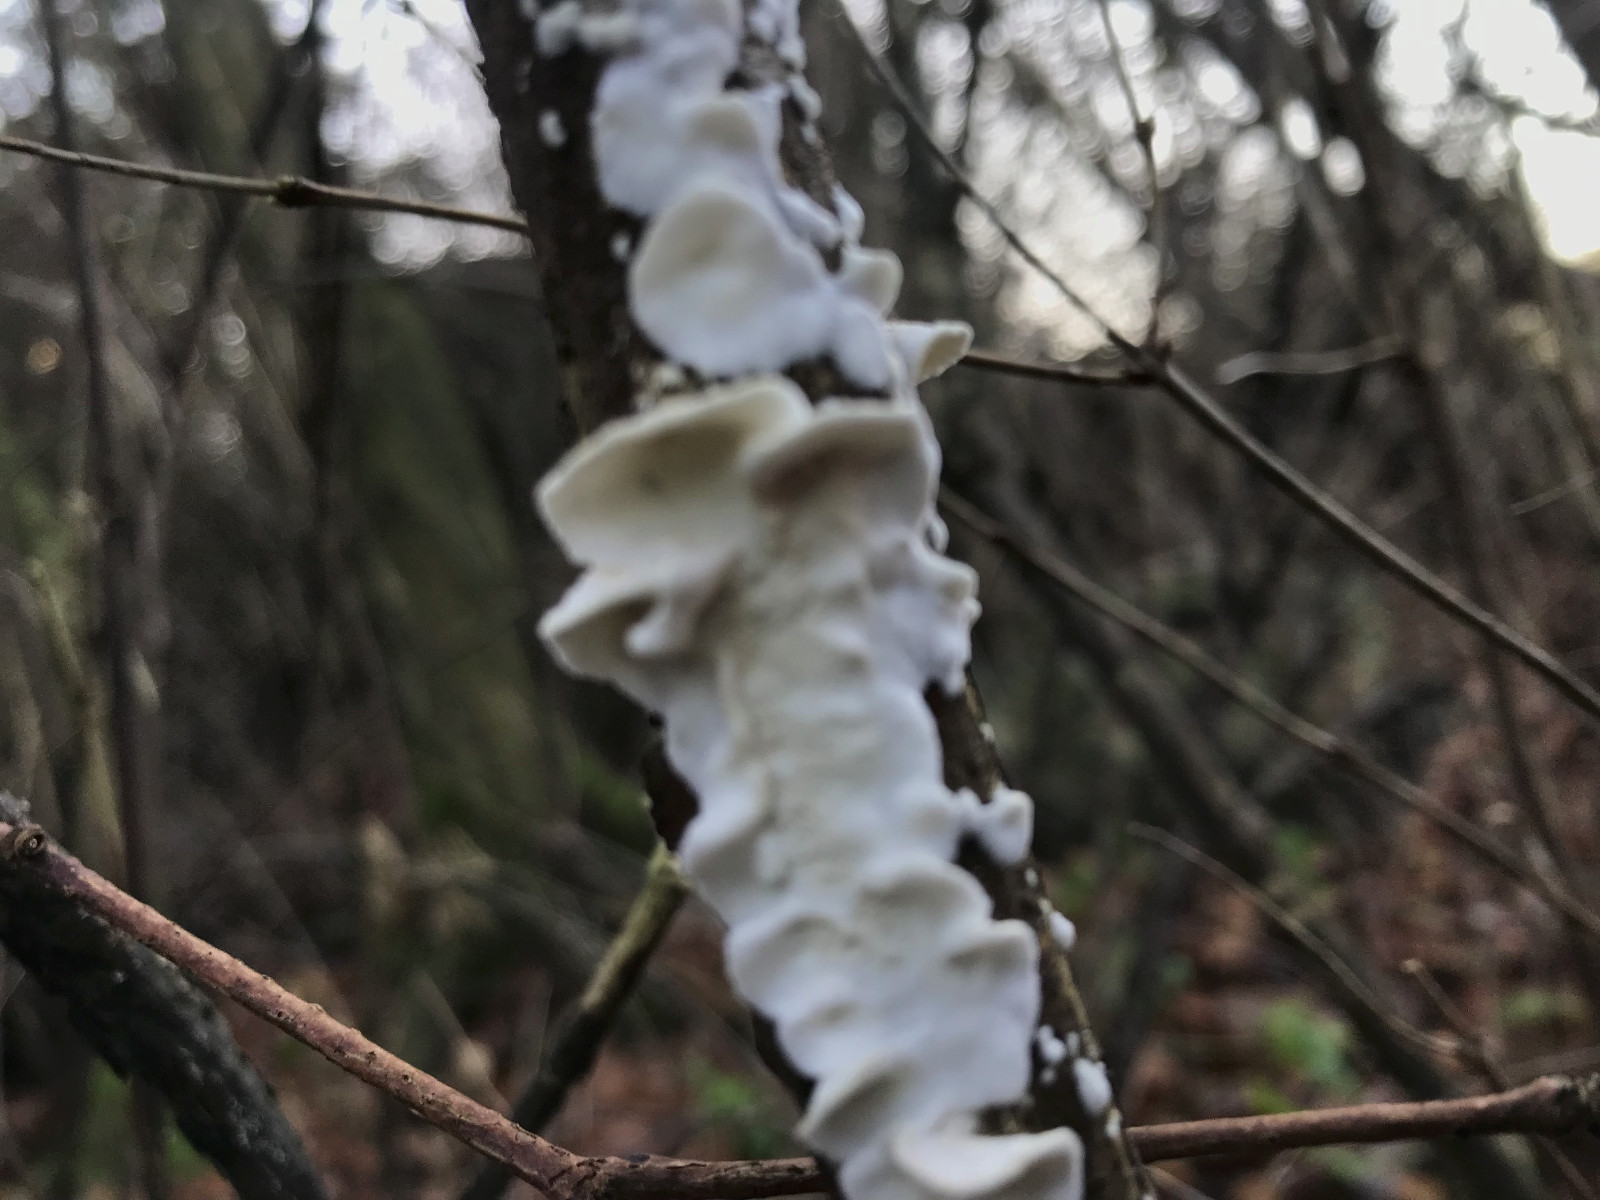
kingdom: Fungi
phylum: Basidiomycota
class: Agaricomycetes
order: Polyporales
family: Irpicaceae
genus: Byssomerulius
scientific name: Byssomerulius corium
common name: læder-åresvamp
